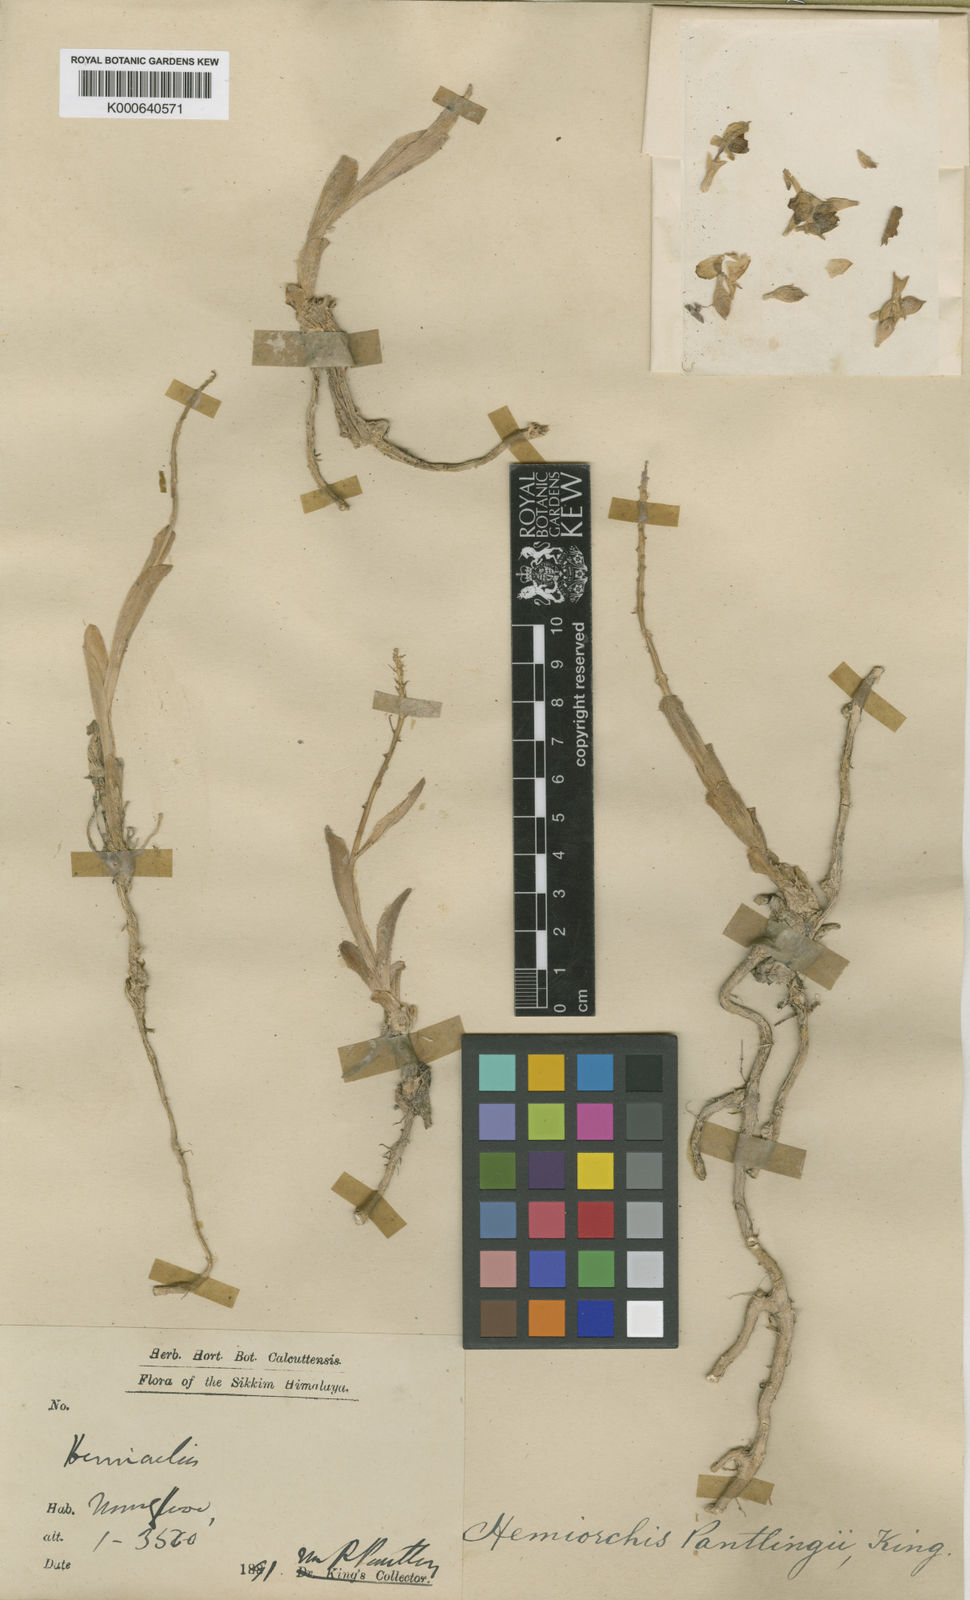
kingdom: Plantae
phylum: Tracheophyta
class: Liliopsida
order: Zingiberales
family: Zingiberaceae
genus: Hemiorchis
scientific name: Hemiorchis pantlingii
